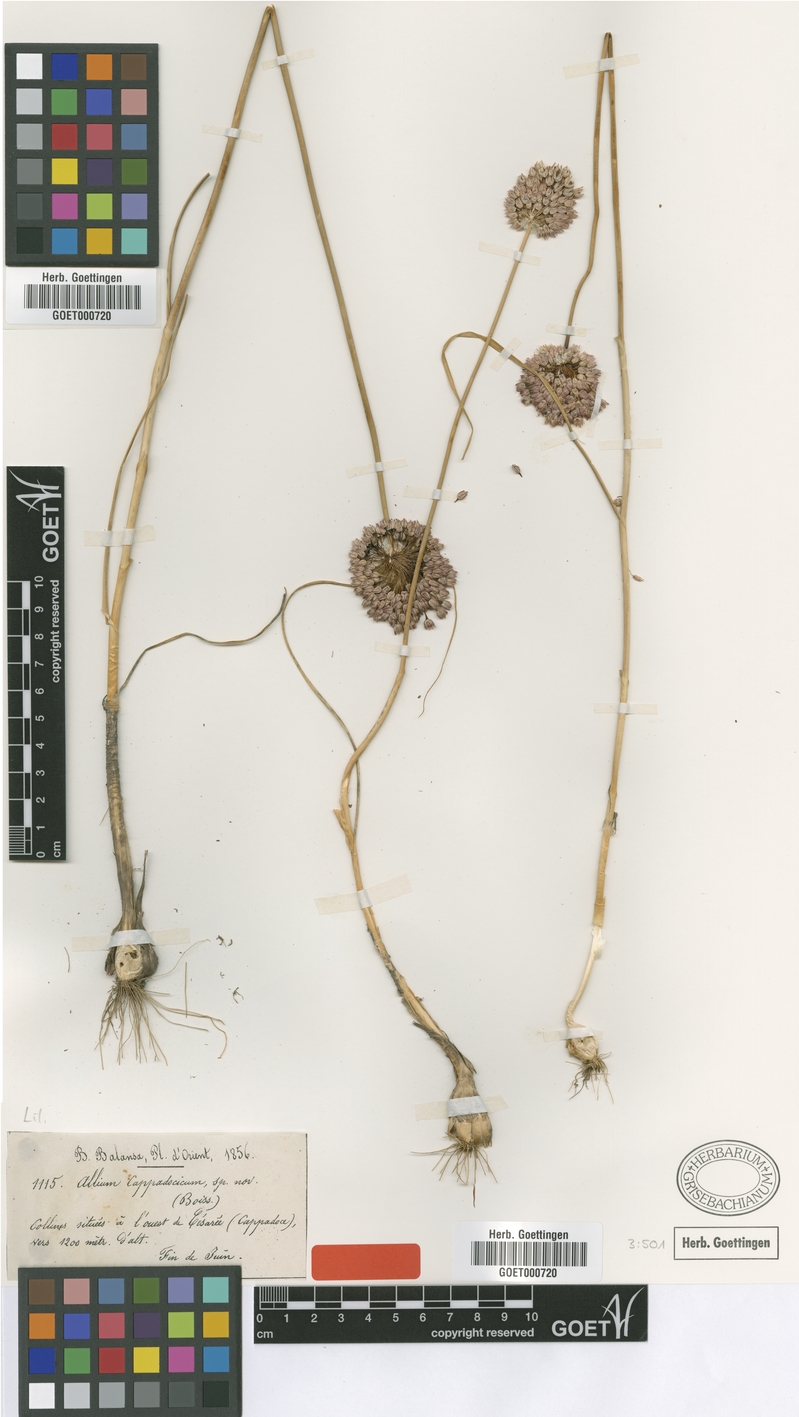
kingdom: Plantae
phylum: Tracheophyta
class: Liliopsida
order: Asparagales
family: Amaryllidaceae
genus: Allium
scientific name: Allium cappadocicum
